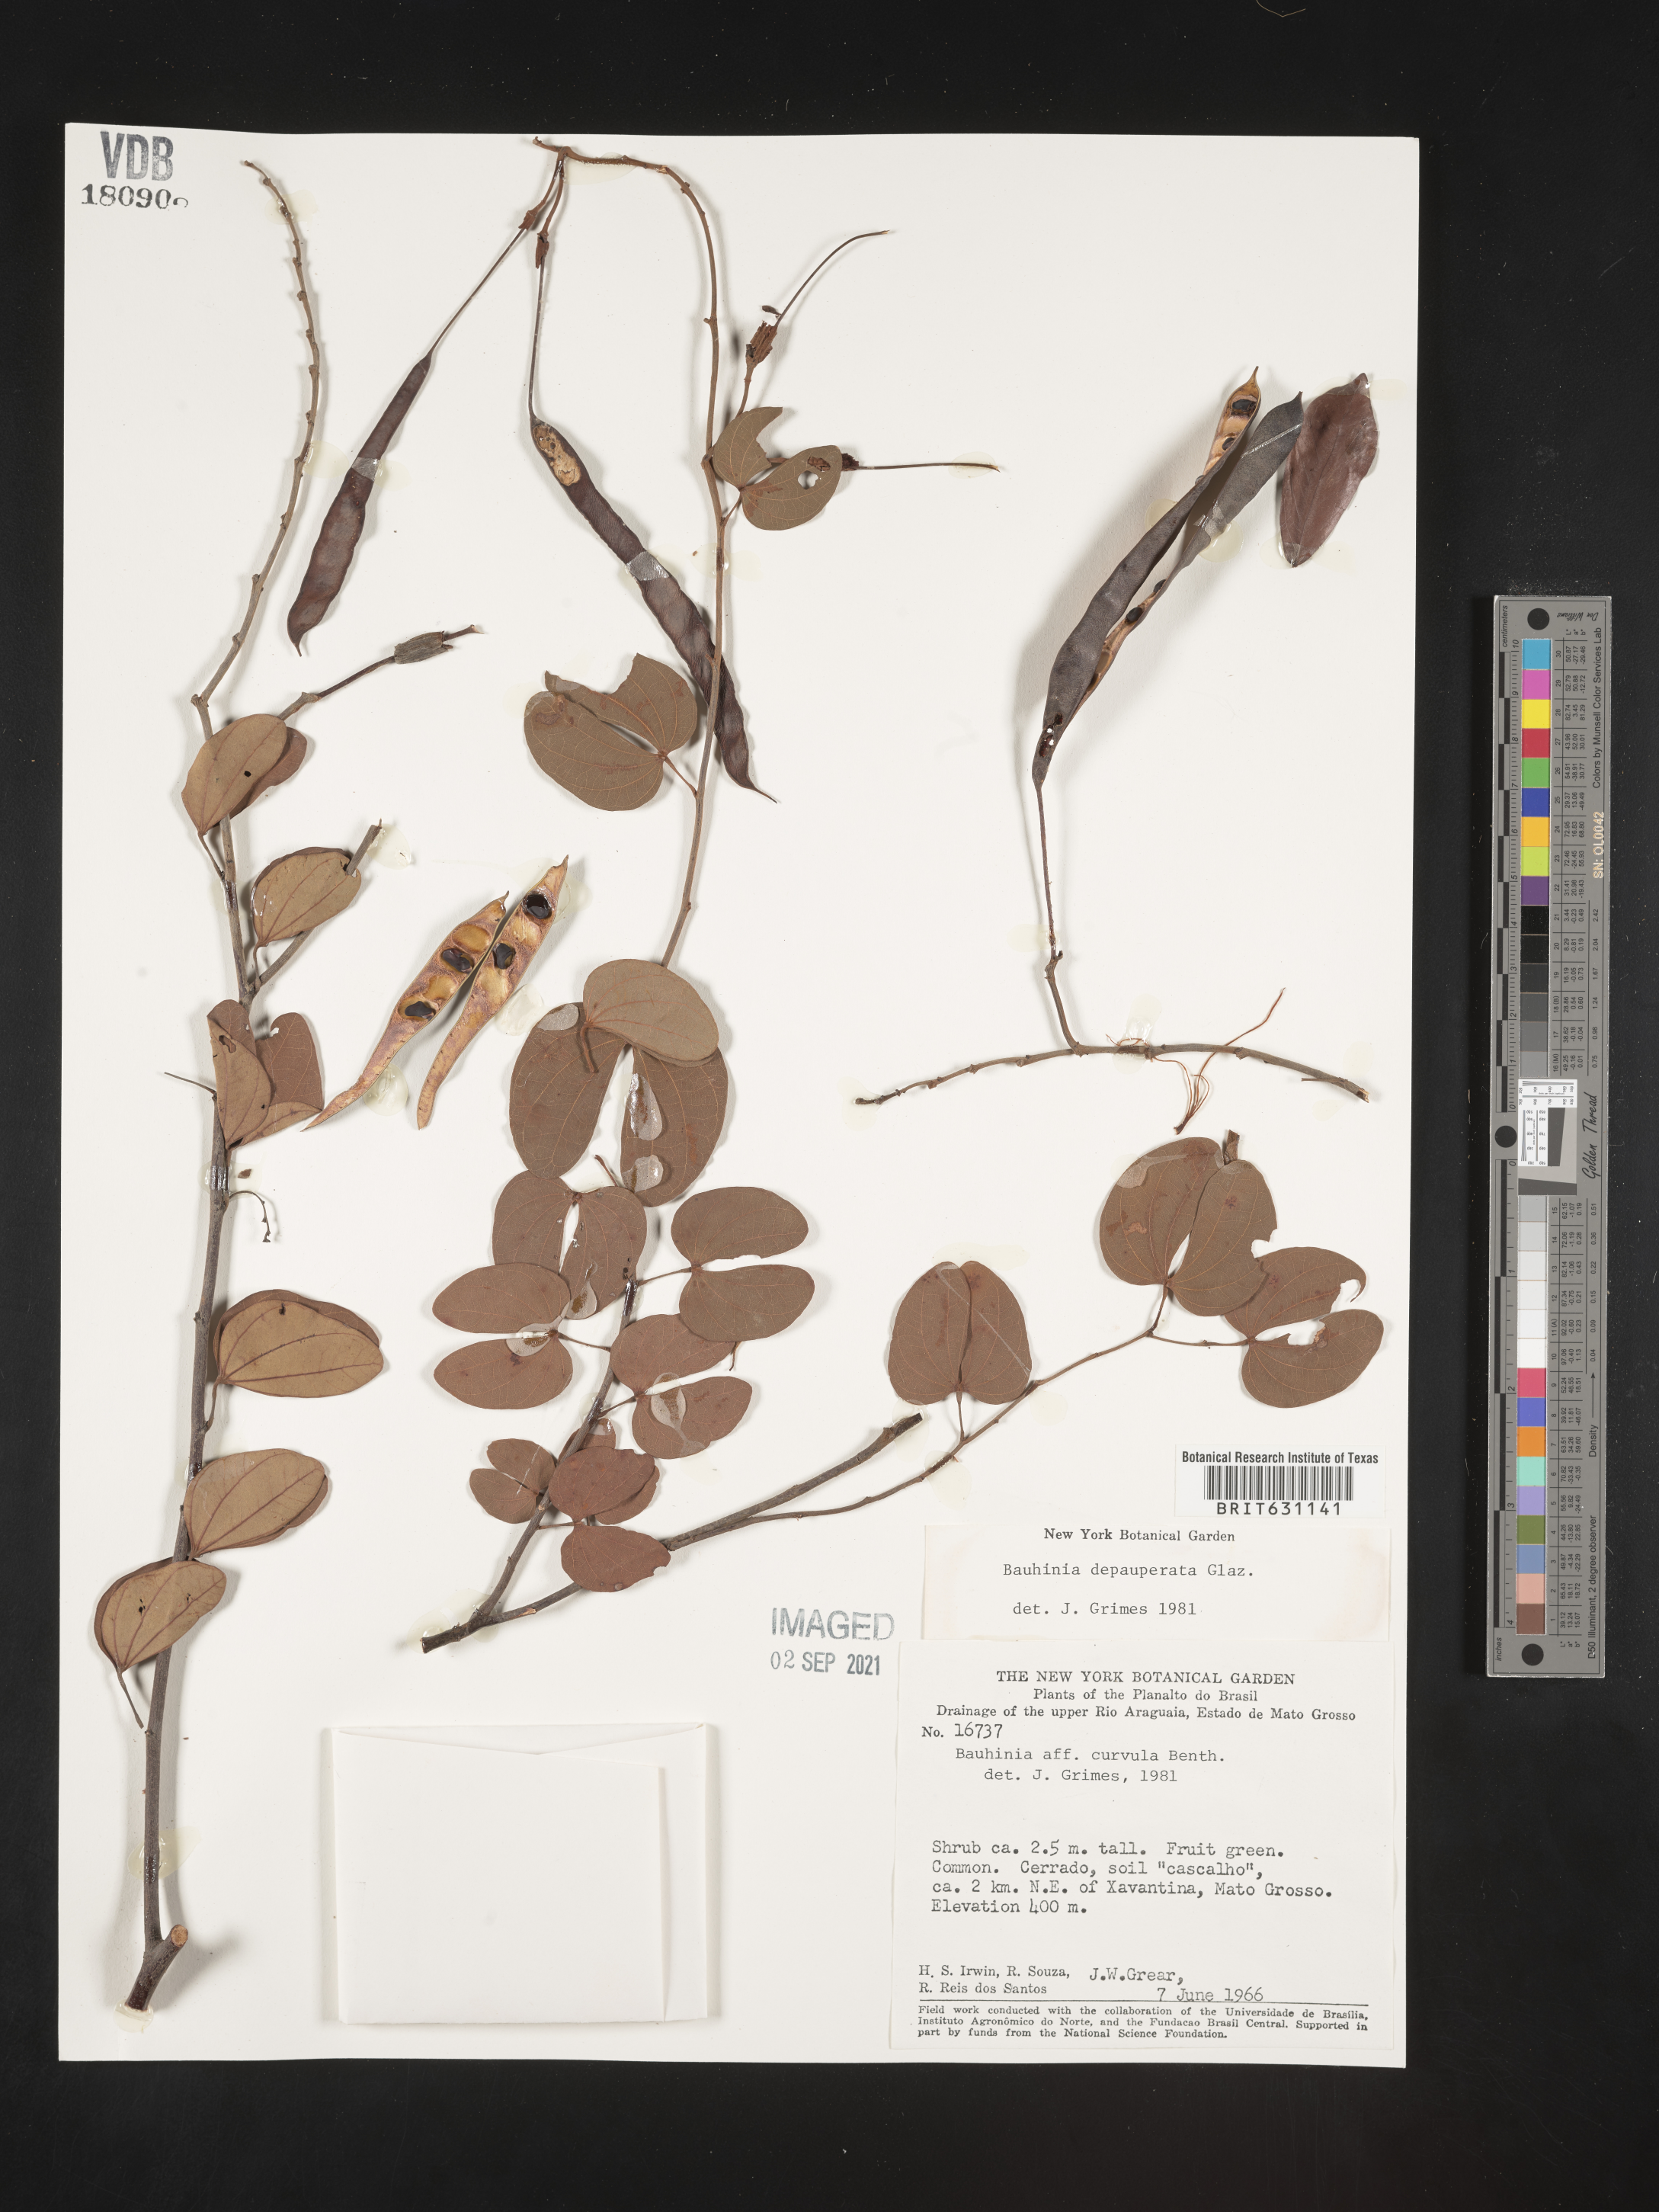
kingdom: Plantae
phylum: Tracheophyta
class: Magnoliopsida
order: Fabales
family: Fabaceae
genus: Bauhinia
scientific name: Bauhinia
